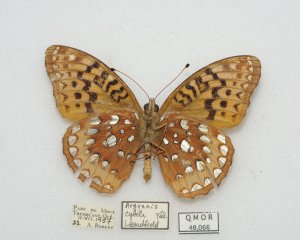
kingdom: Animalia
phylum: Arthropoda
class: Insecta
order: Lepidoptera
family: Nymphalidae
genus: Speyeria
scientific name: Speyeria cybele
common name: Great Spangled Fritillary
